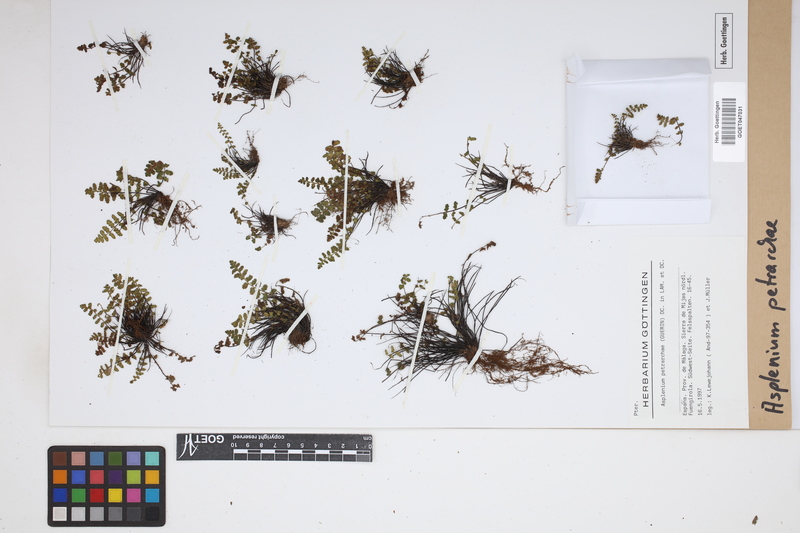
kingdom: Plantae
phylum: Tracheophyta
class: Polypodiopsida
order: Polypodiales
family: Aspleniaceae
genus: Asplenium
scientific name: Asplenium petrarchae
